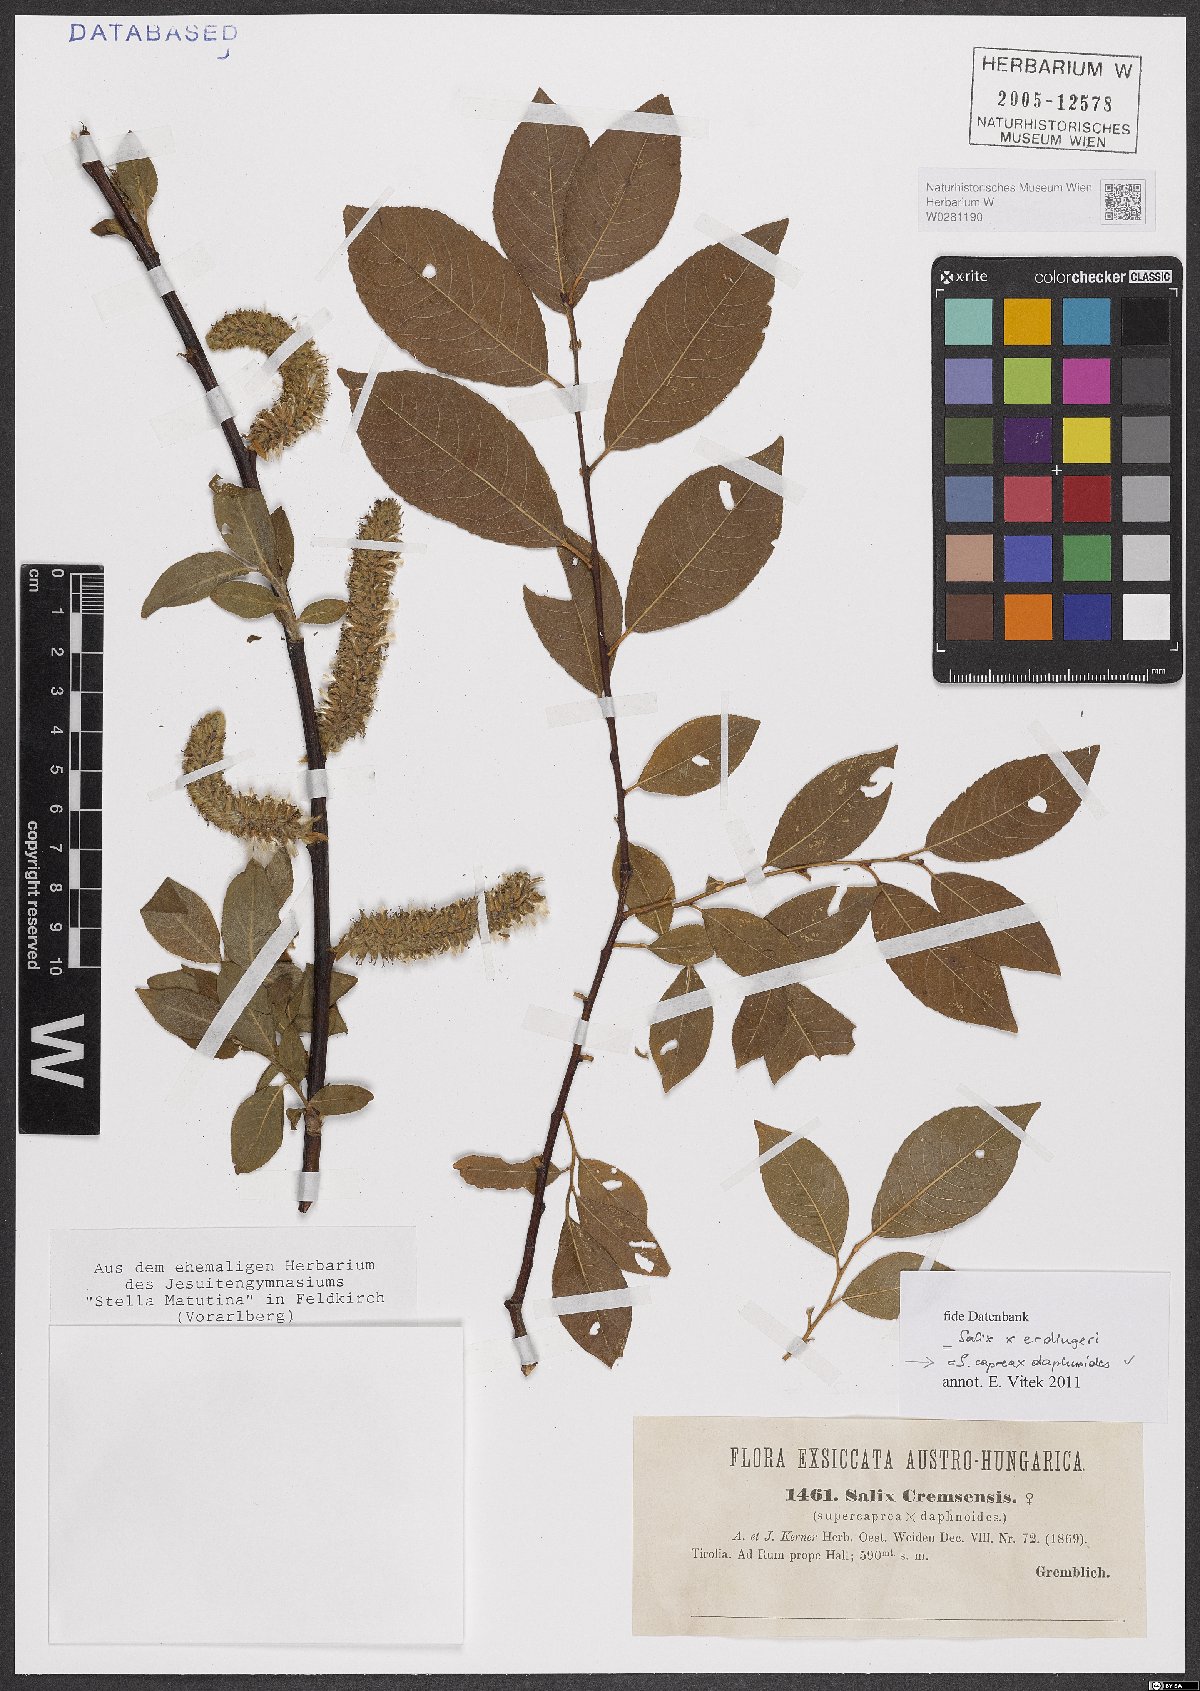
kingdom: Plantae
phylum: Tracheophyta
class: Magnoliopsida
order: Malpighiales
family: Salicaceae
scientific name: Salicaceae
